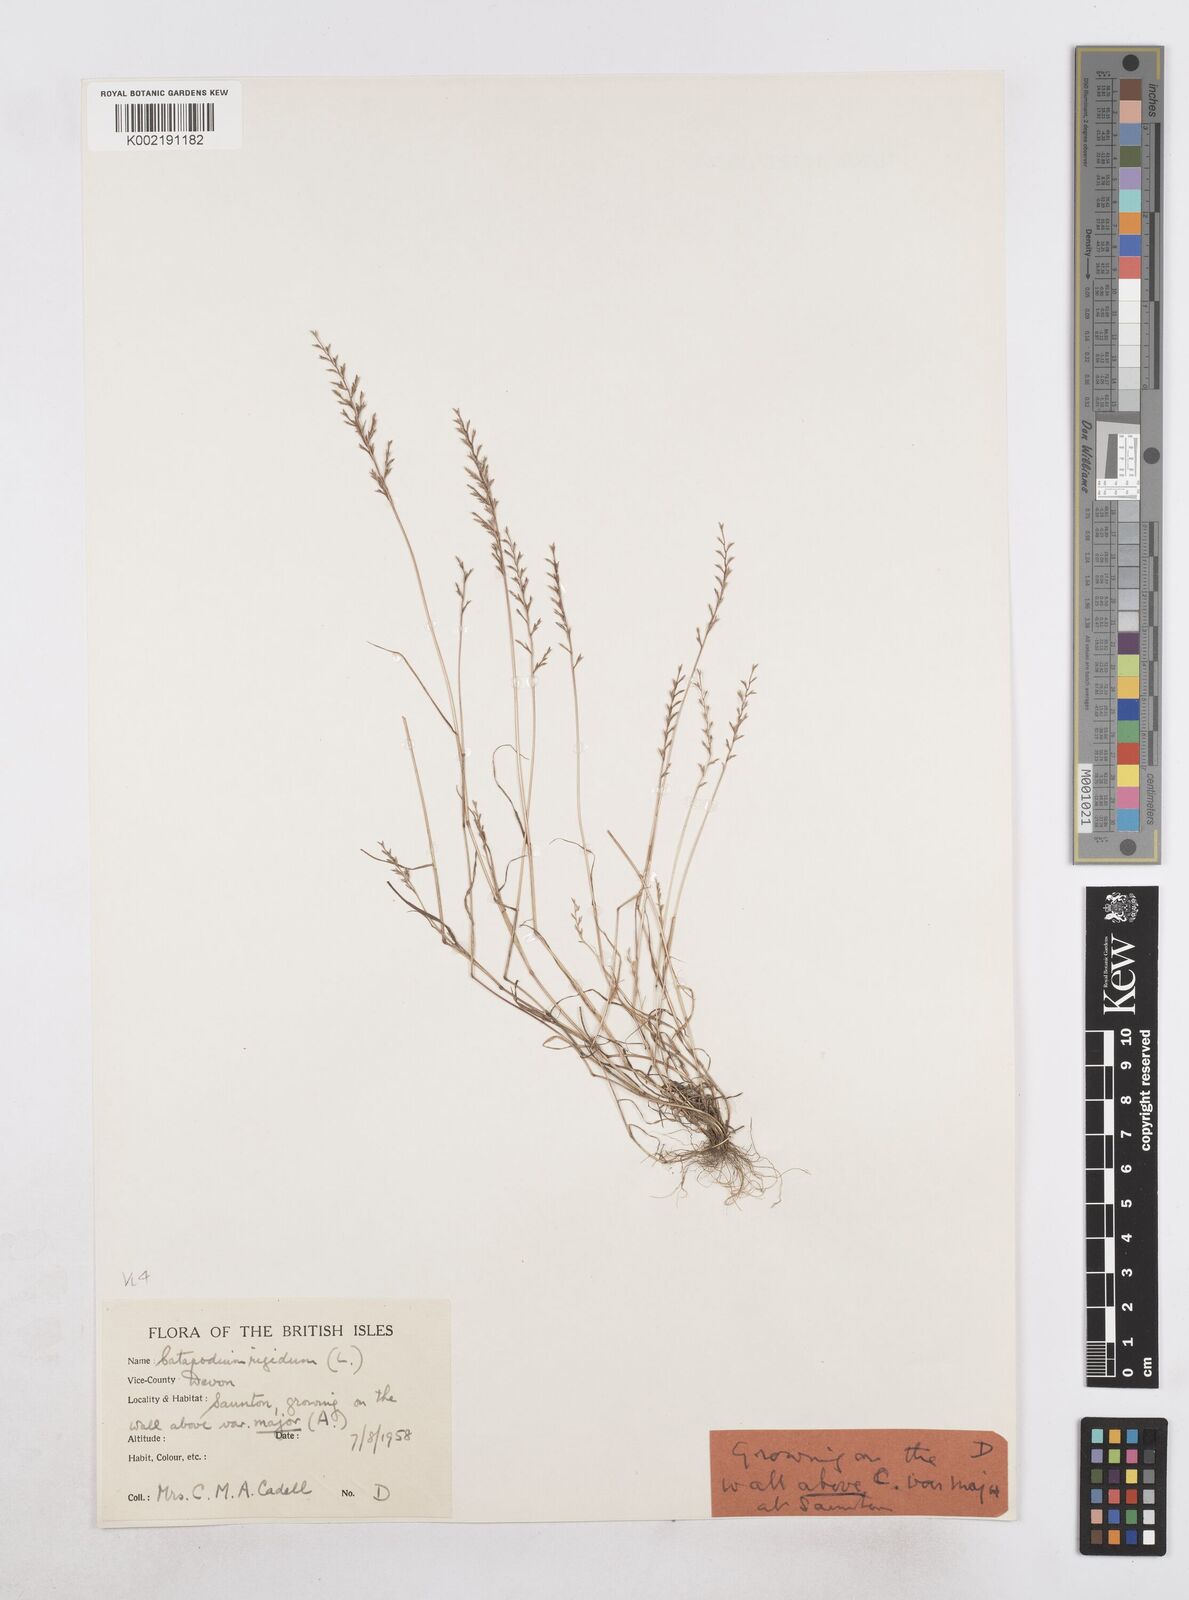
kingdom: Plantae
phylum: Tracheophyta
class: Liliopsida
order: Poales
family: Poaceae
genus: Catapodium
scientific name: Catapodium rigidum
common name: Fern-grass
